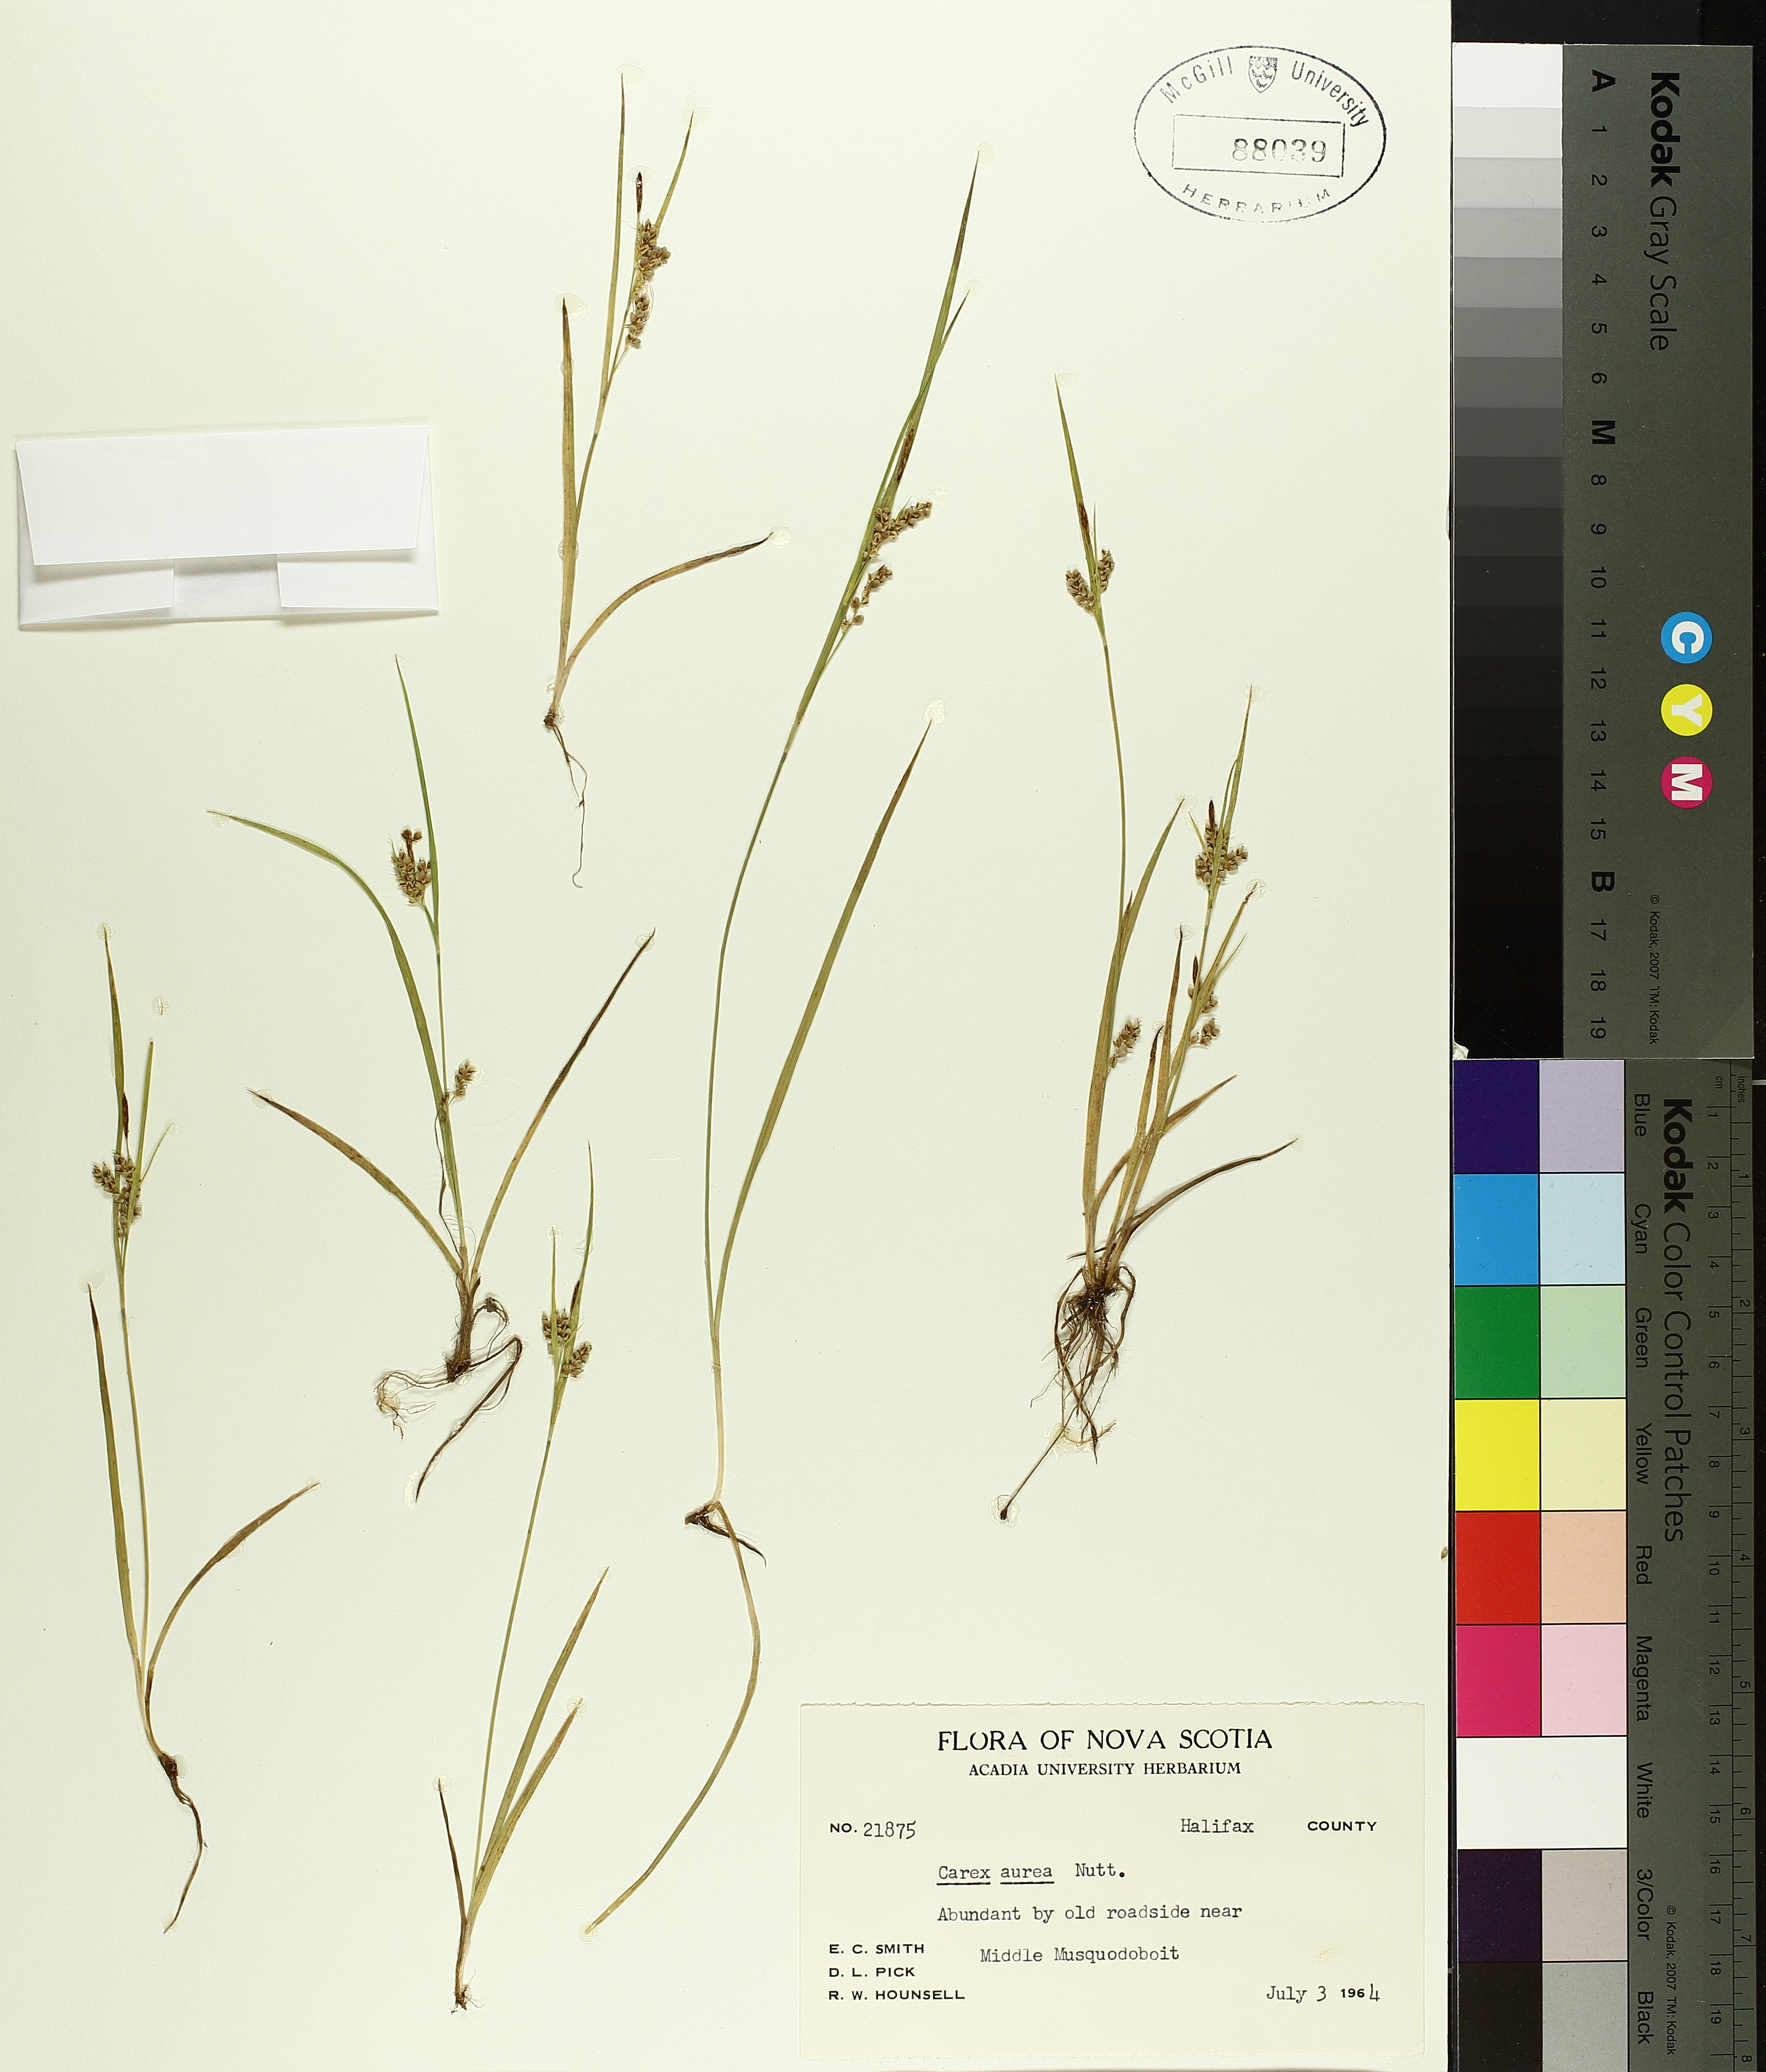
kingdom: Plantae
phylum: Tracheophyta
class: Liliopsida
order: Poales
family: Cyperaceae
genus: Carex
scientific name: Carex aurea
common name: Golden sedge
